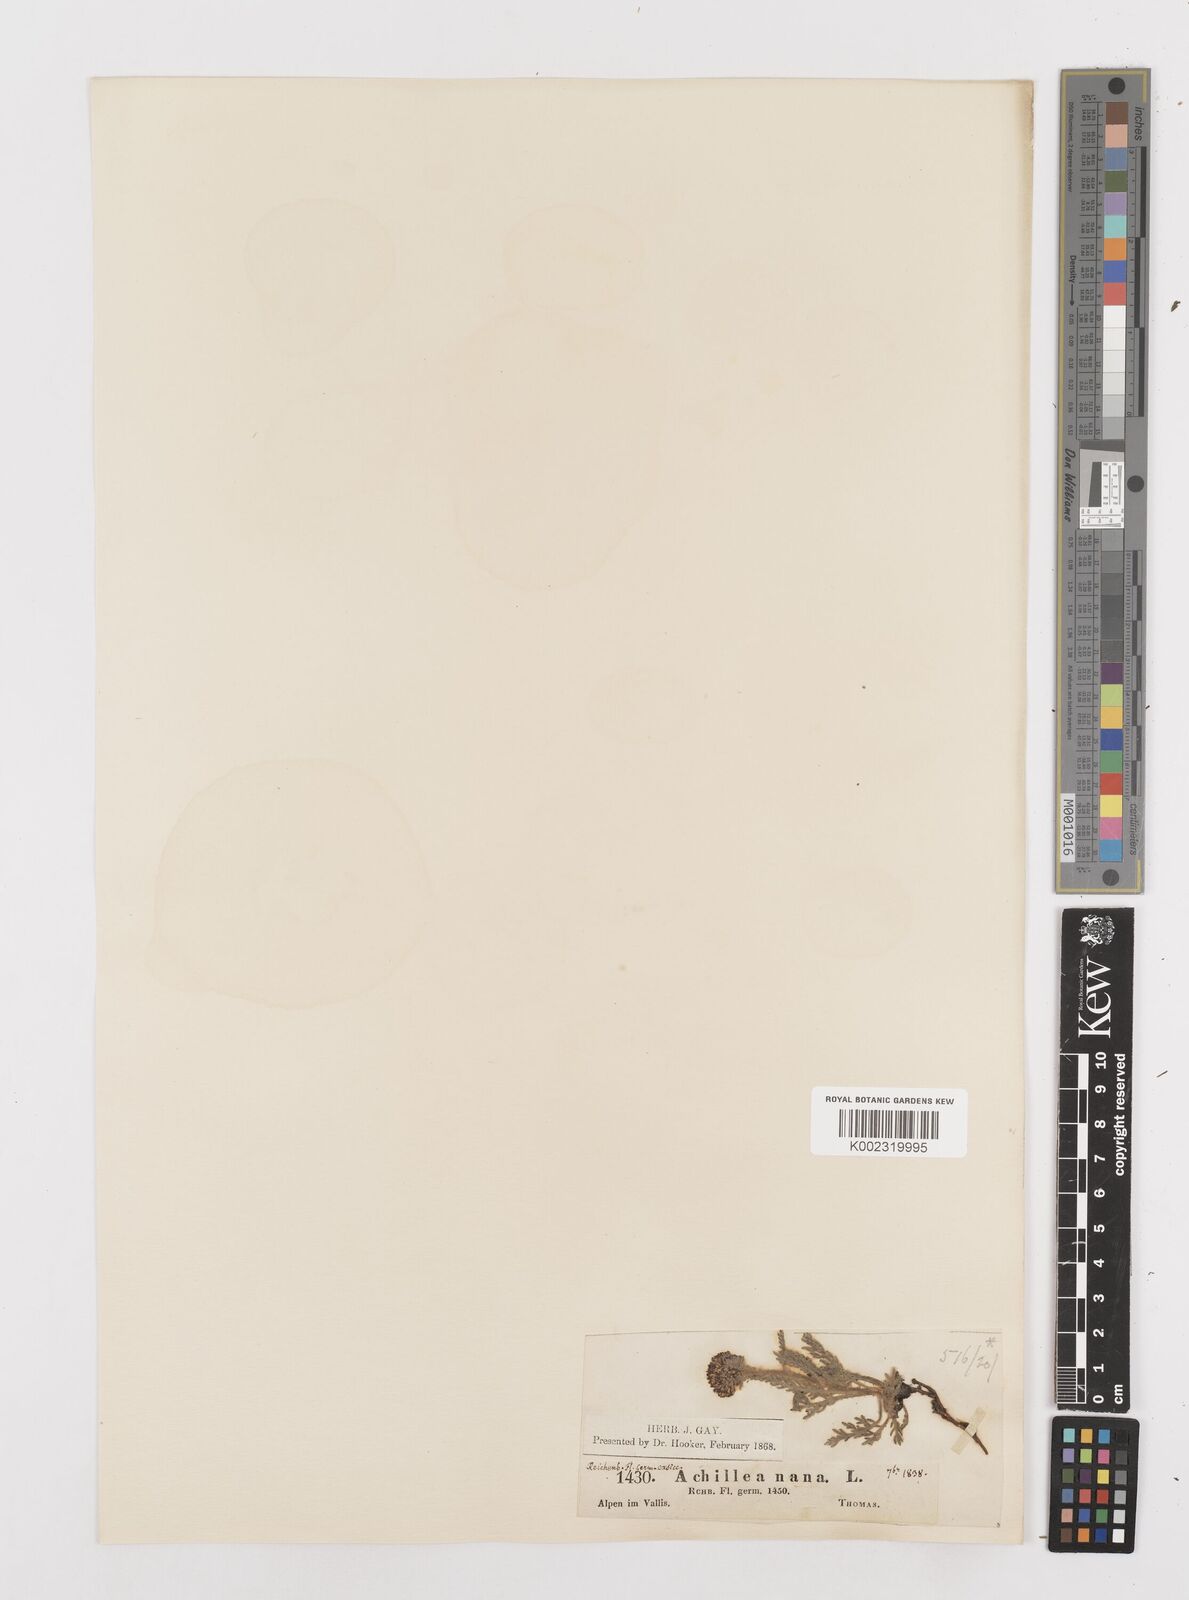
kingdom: Plantae
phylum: Tracheophyta
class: Magnoliopsida
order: Asterales
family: Asteraceae
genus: Achillea
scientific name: Achillea nana
